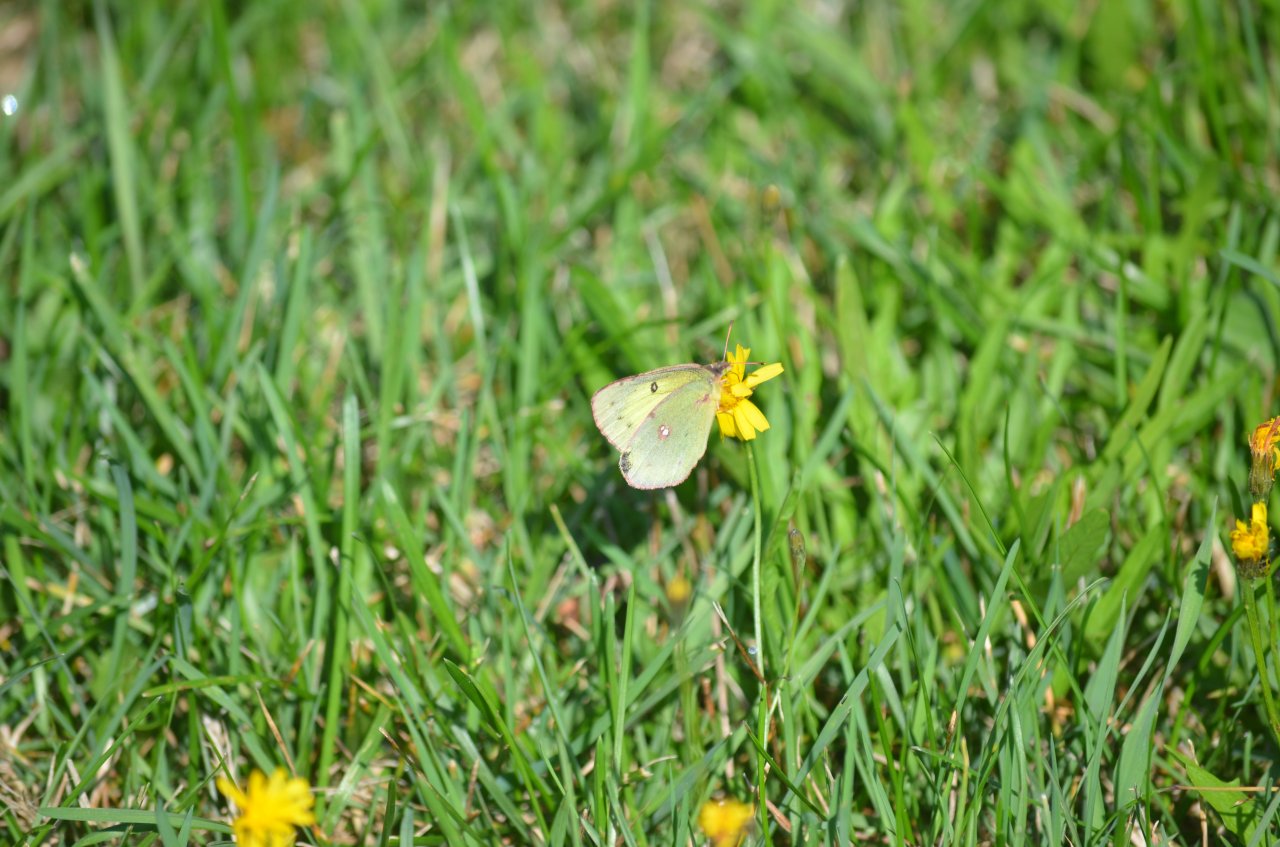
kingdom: Animalia
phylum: Arthropoda
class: Insecta
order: Lepidoptera
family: Pieridae
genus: Colias
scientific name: Colias philodice
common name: Clouded Sulphur
